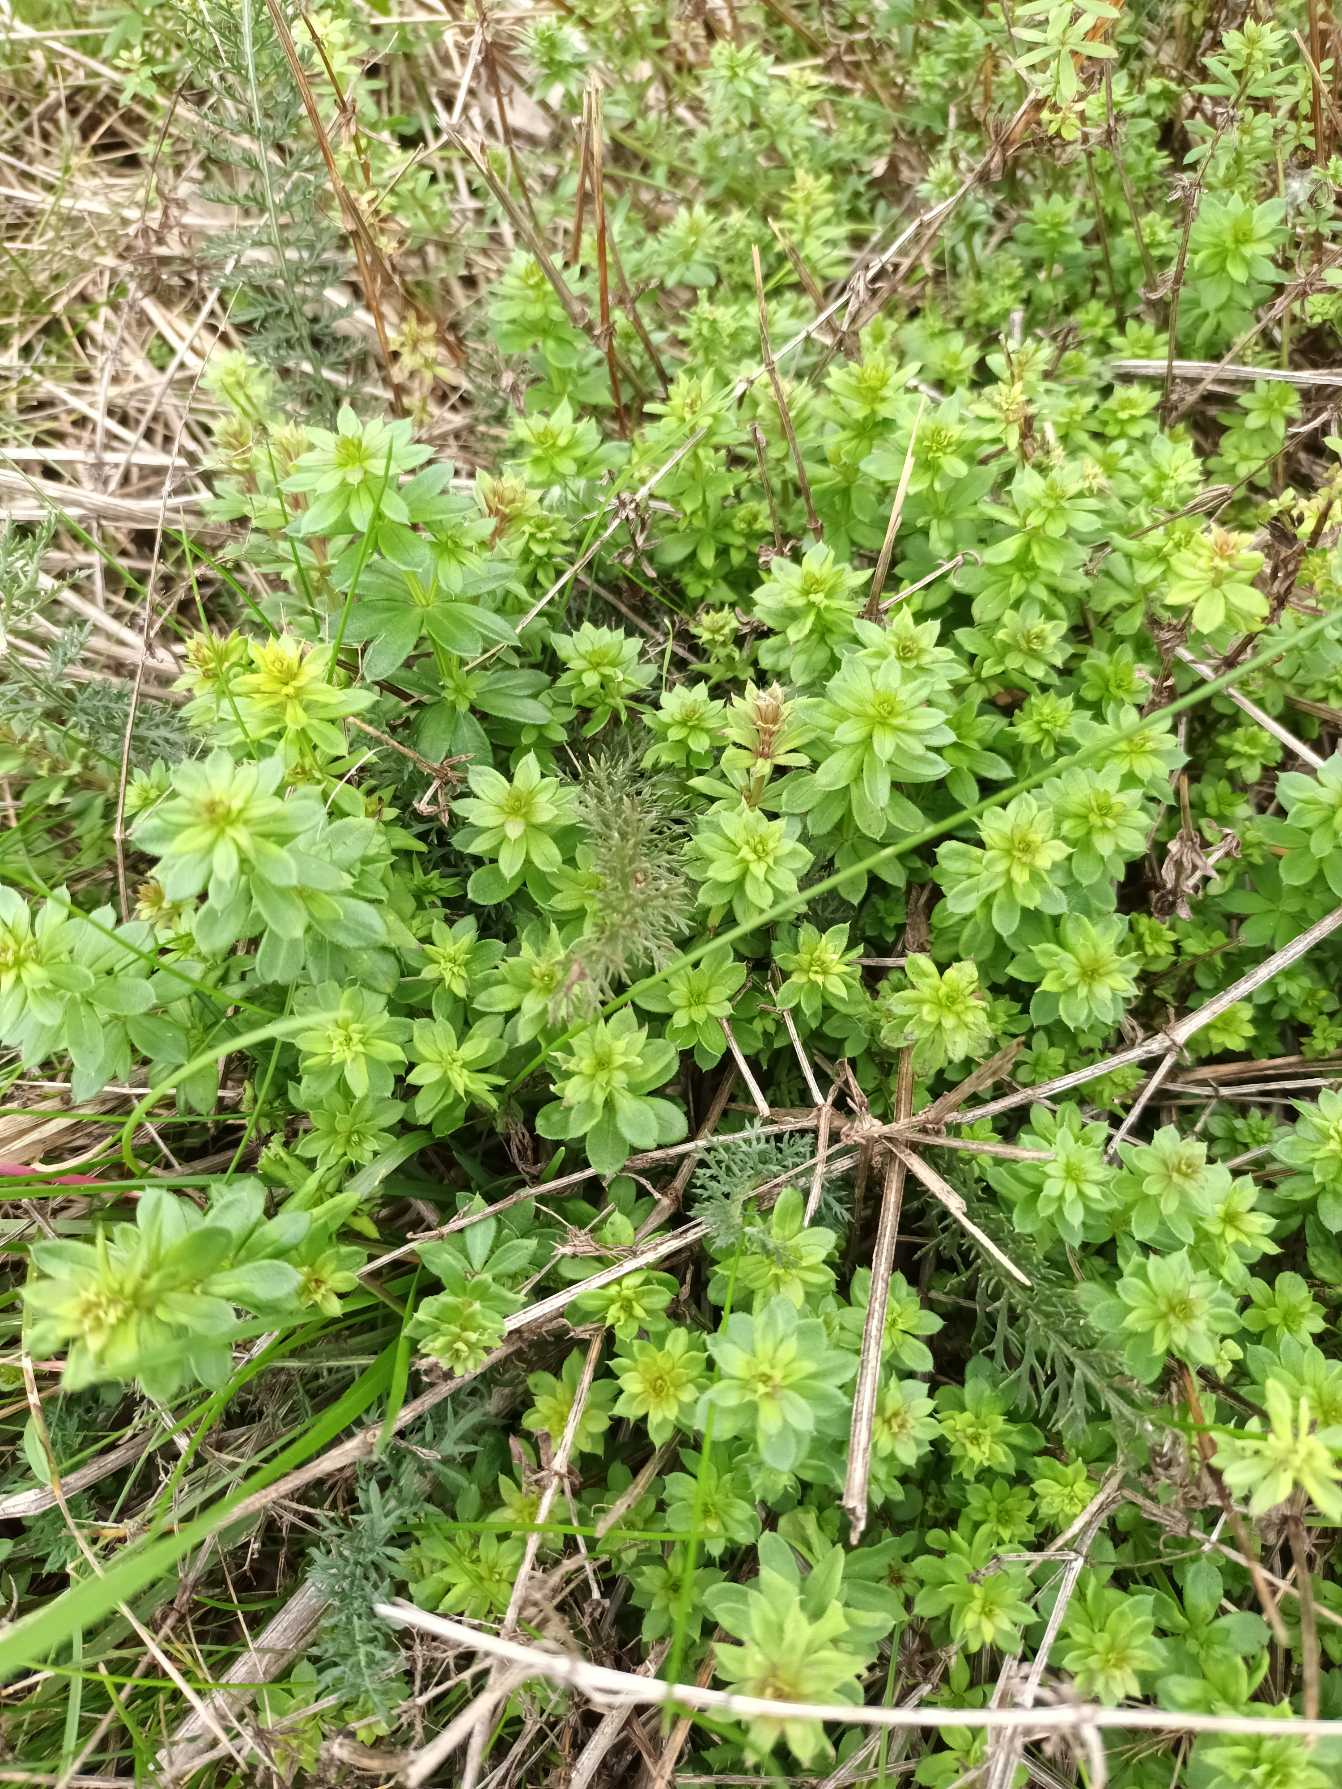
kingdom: Plantae
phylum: Tracheophyta
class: Magnoliopsida
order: Gentianales
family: Rubiaceae
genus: Galium
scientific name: Galium mollugo
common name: Hvid snerre
